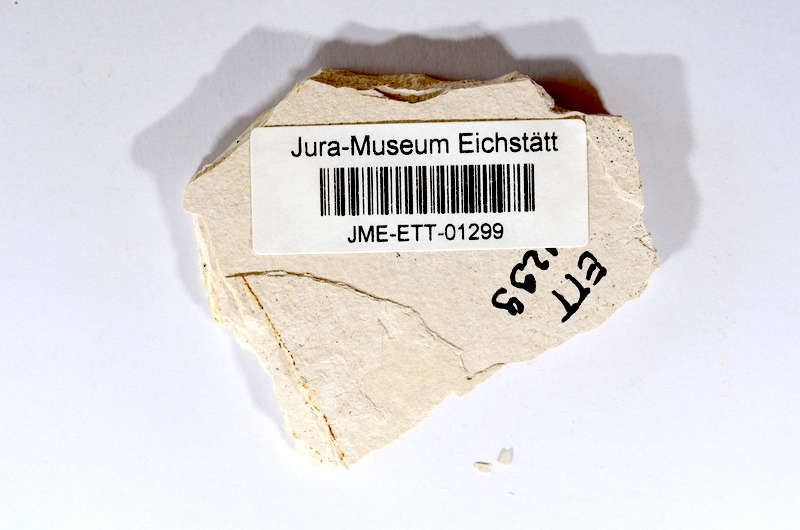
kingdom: Animalia
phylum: Chordata
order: Salmoniformes
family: Orthogonikleithridae
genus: Orthogonikleithrus
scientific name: Orthogonikleithrus hoelli
